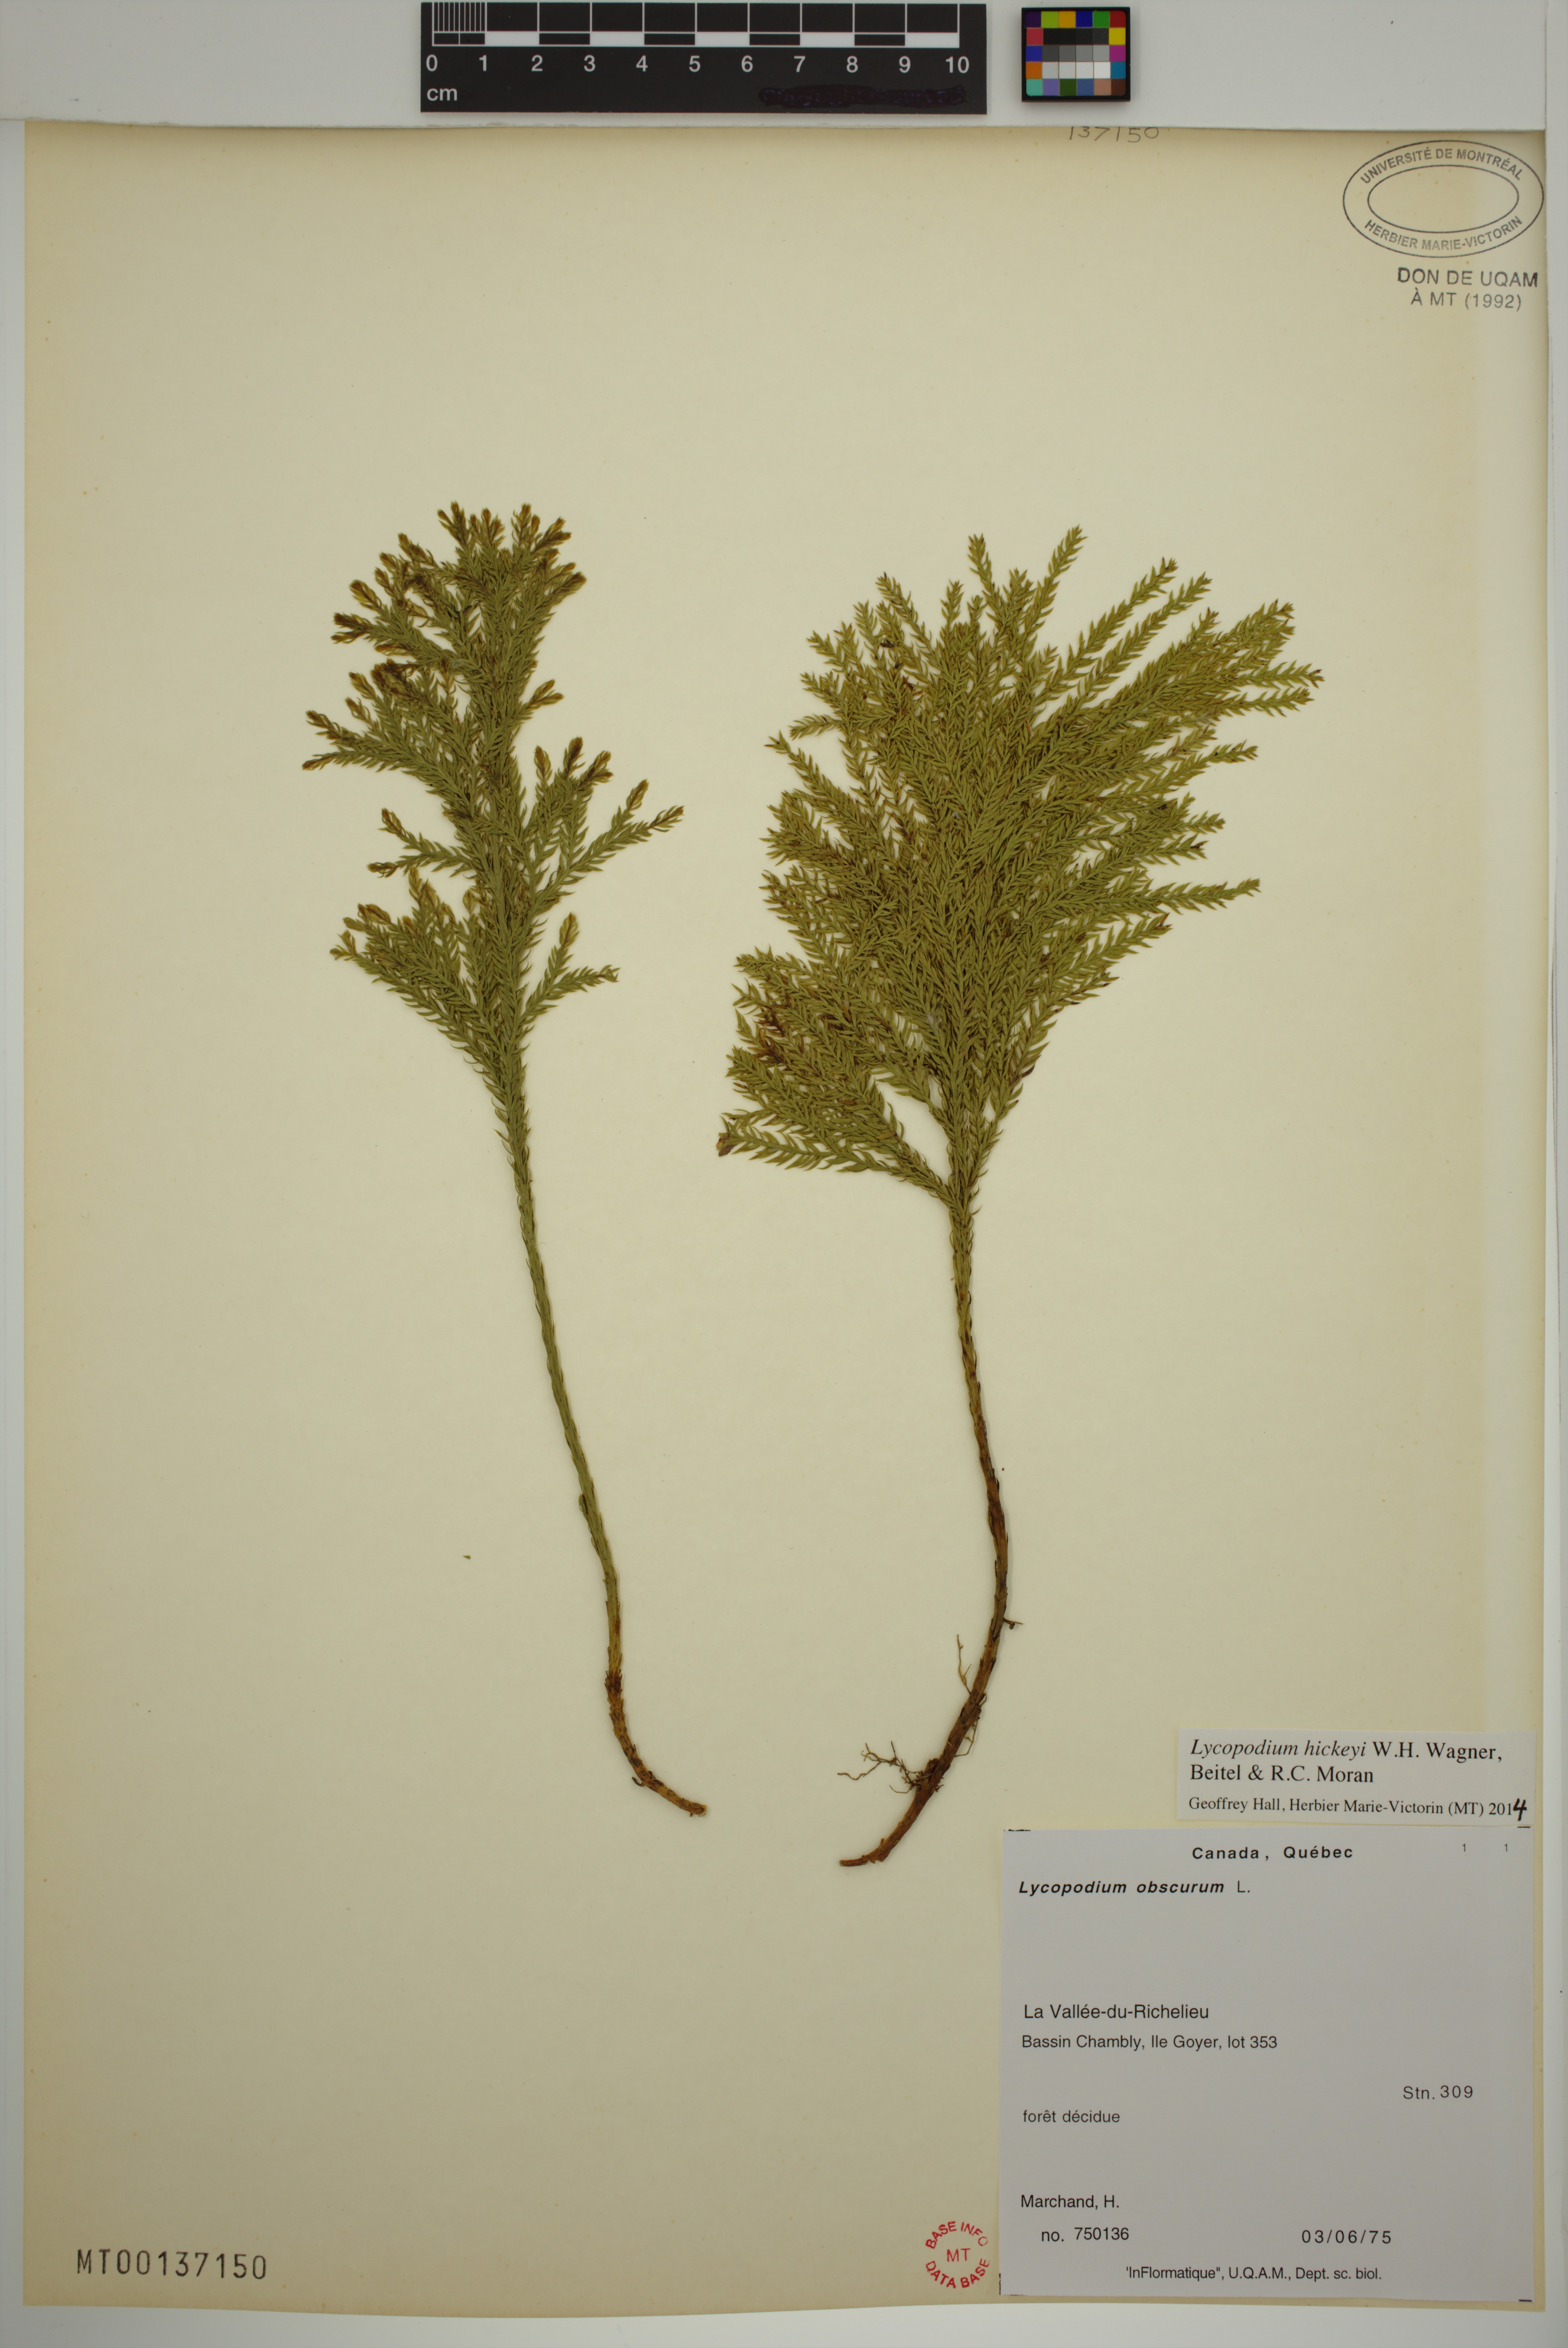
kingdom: Plantae
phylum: Tracheophyta
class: Lycopodiopsida
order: Lycopodiales
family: Lycopodiaceae
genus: Dendrolycopodium
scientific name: Dendrolycopodium hickeyi
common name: Hickey's clubmoss
